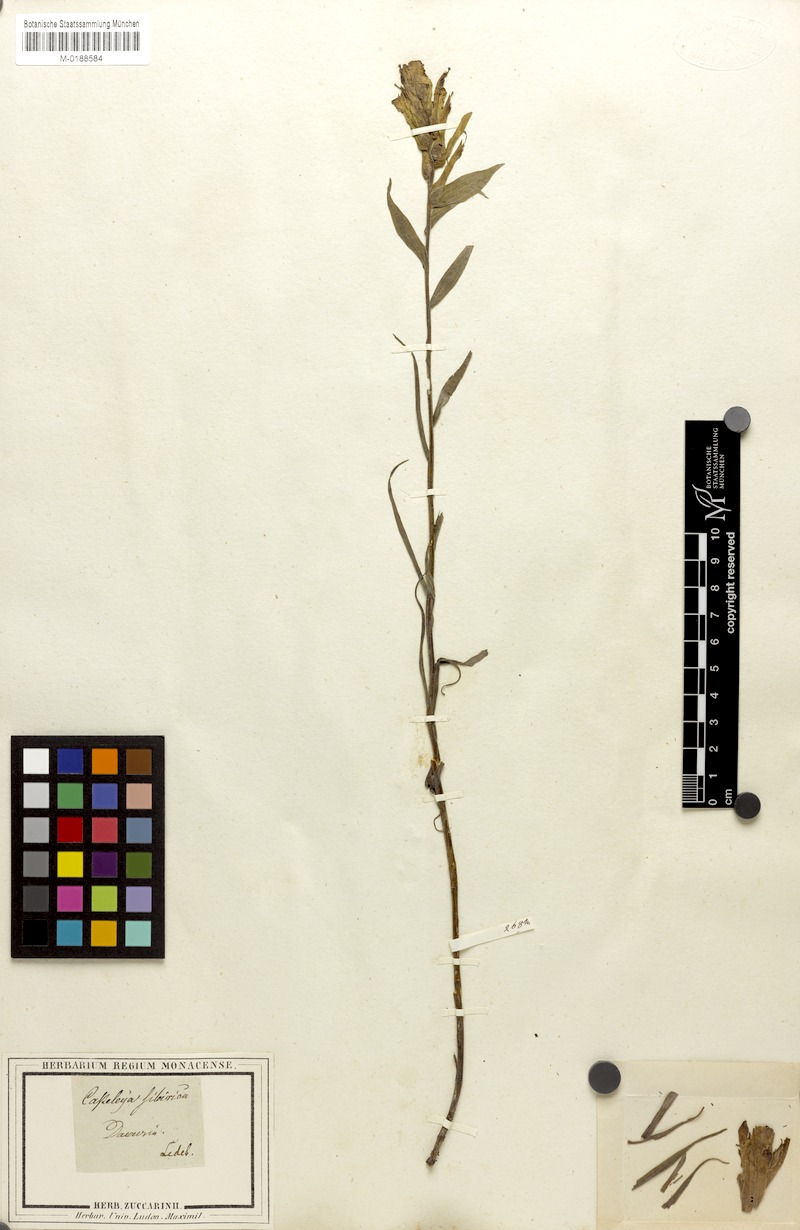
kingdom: Plantae
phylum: Tracheophyta
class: Magnoliopsida
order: Lamiales
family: Orobanchaceae
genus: Castilleja
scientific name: Castilleja pallida
